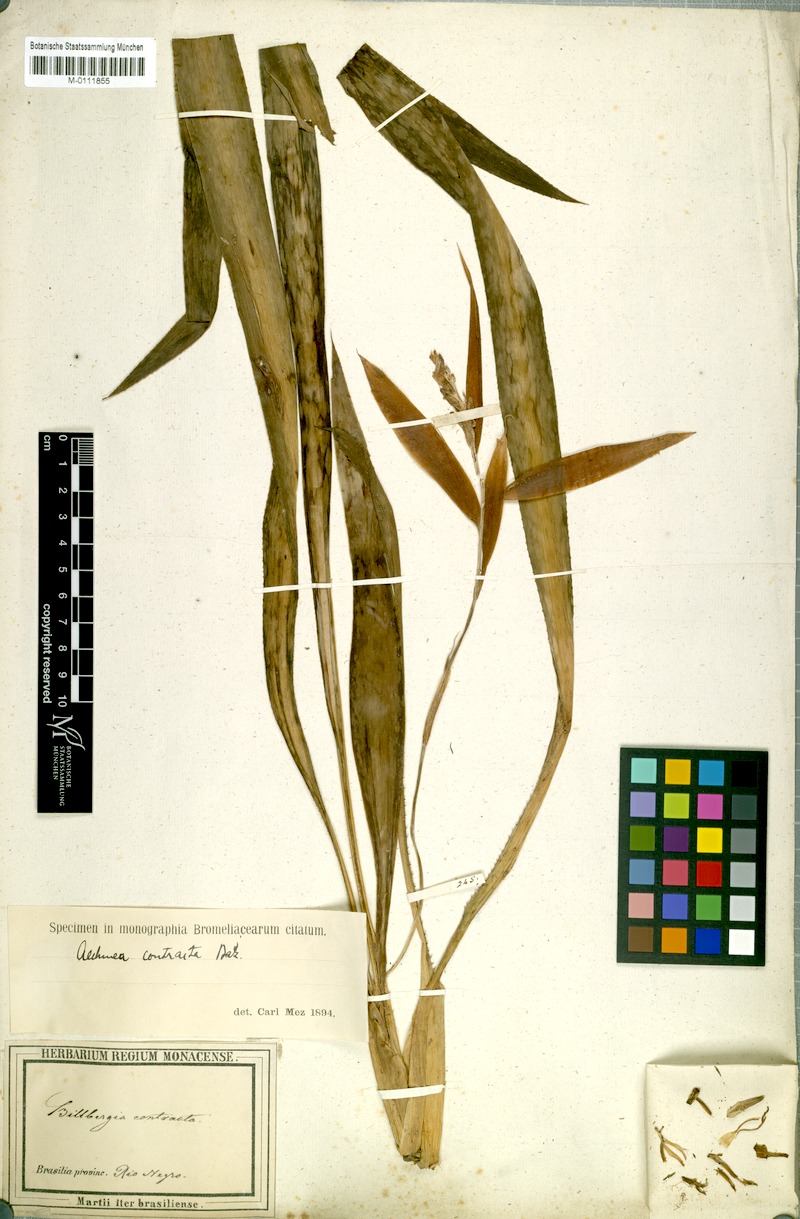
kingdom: Plantae
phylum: Tracheophyta
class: Liliopsida
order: Poales
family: Bromeliaceae
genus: Aechmea
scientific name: Aechmea contracta
